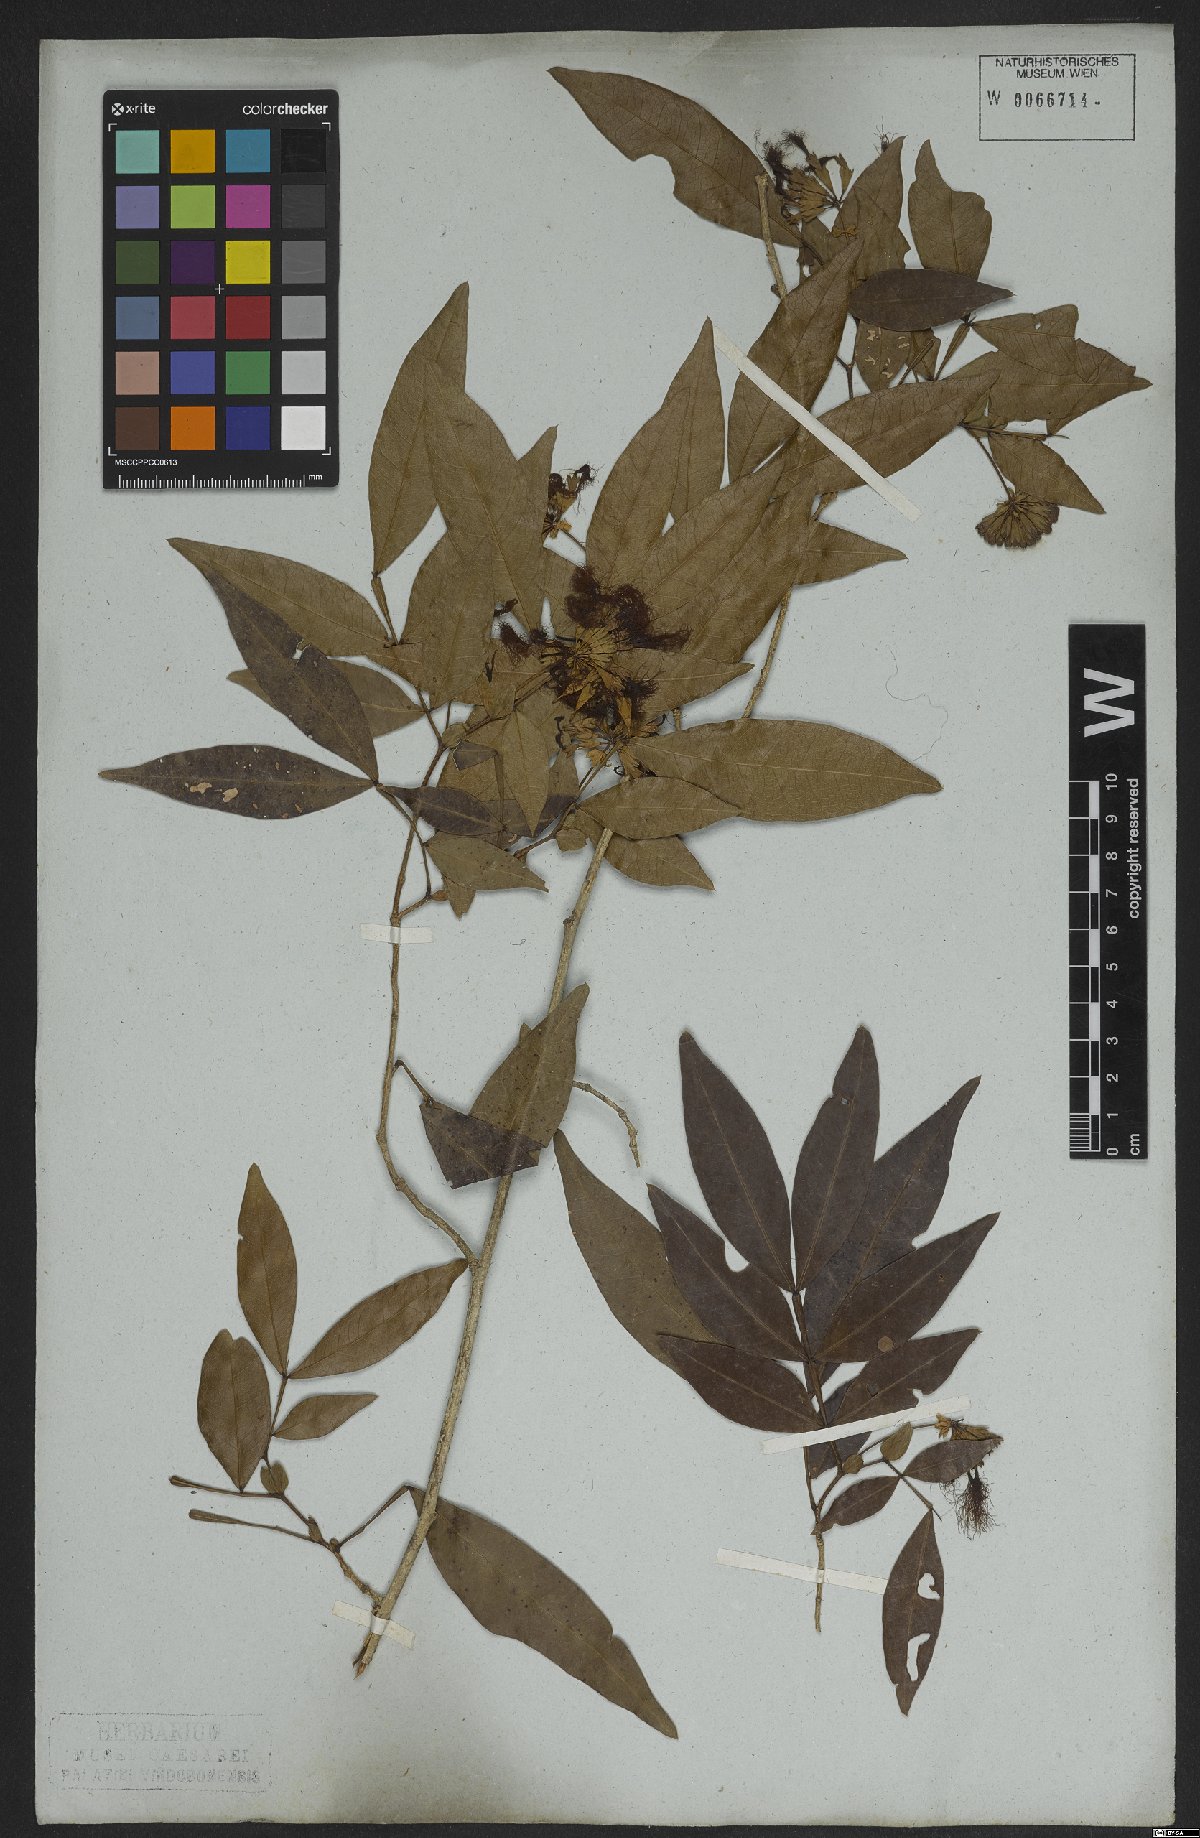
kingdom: Plantae
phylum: Tracheophyta
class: Magnoliopsida
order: Fabales
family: Fabaceae
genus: Inga
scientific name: Inga marginata
